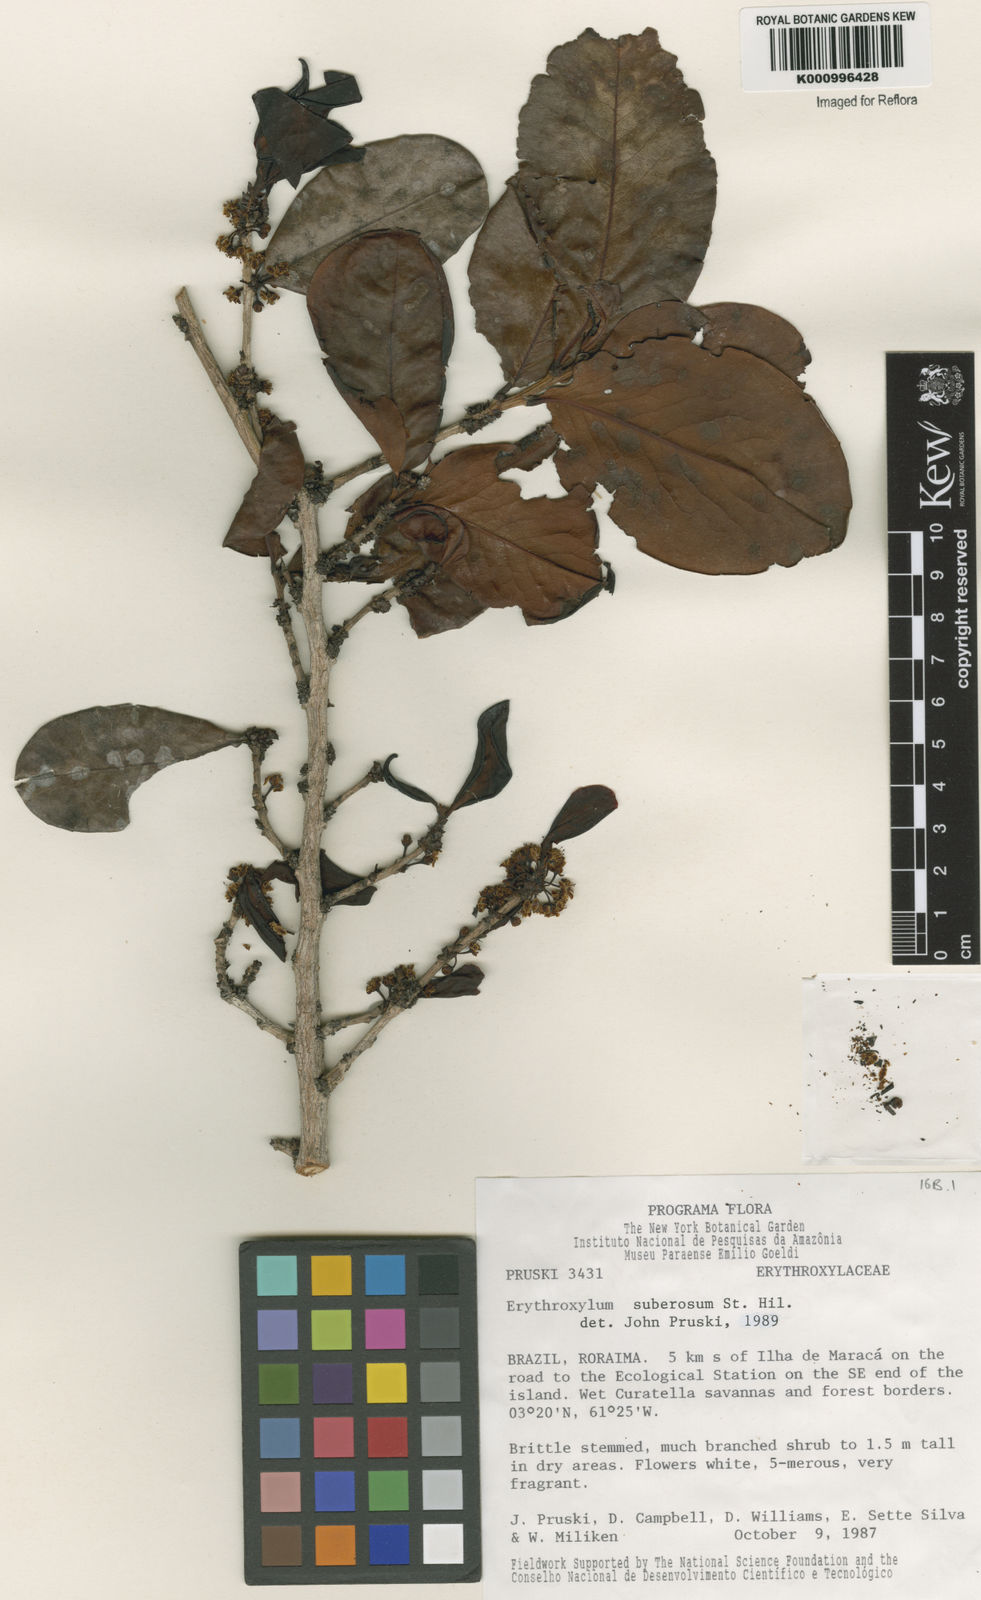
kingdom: Plantae
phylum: Tracheophyta
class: Magnoliopsida
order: Malpighiales
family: Erythroxylaceae
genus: Erythroxylum
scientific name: Erythroxylum suberosum
